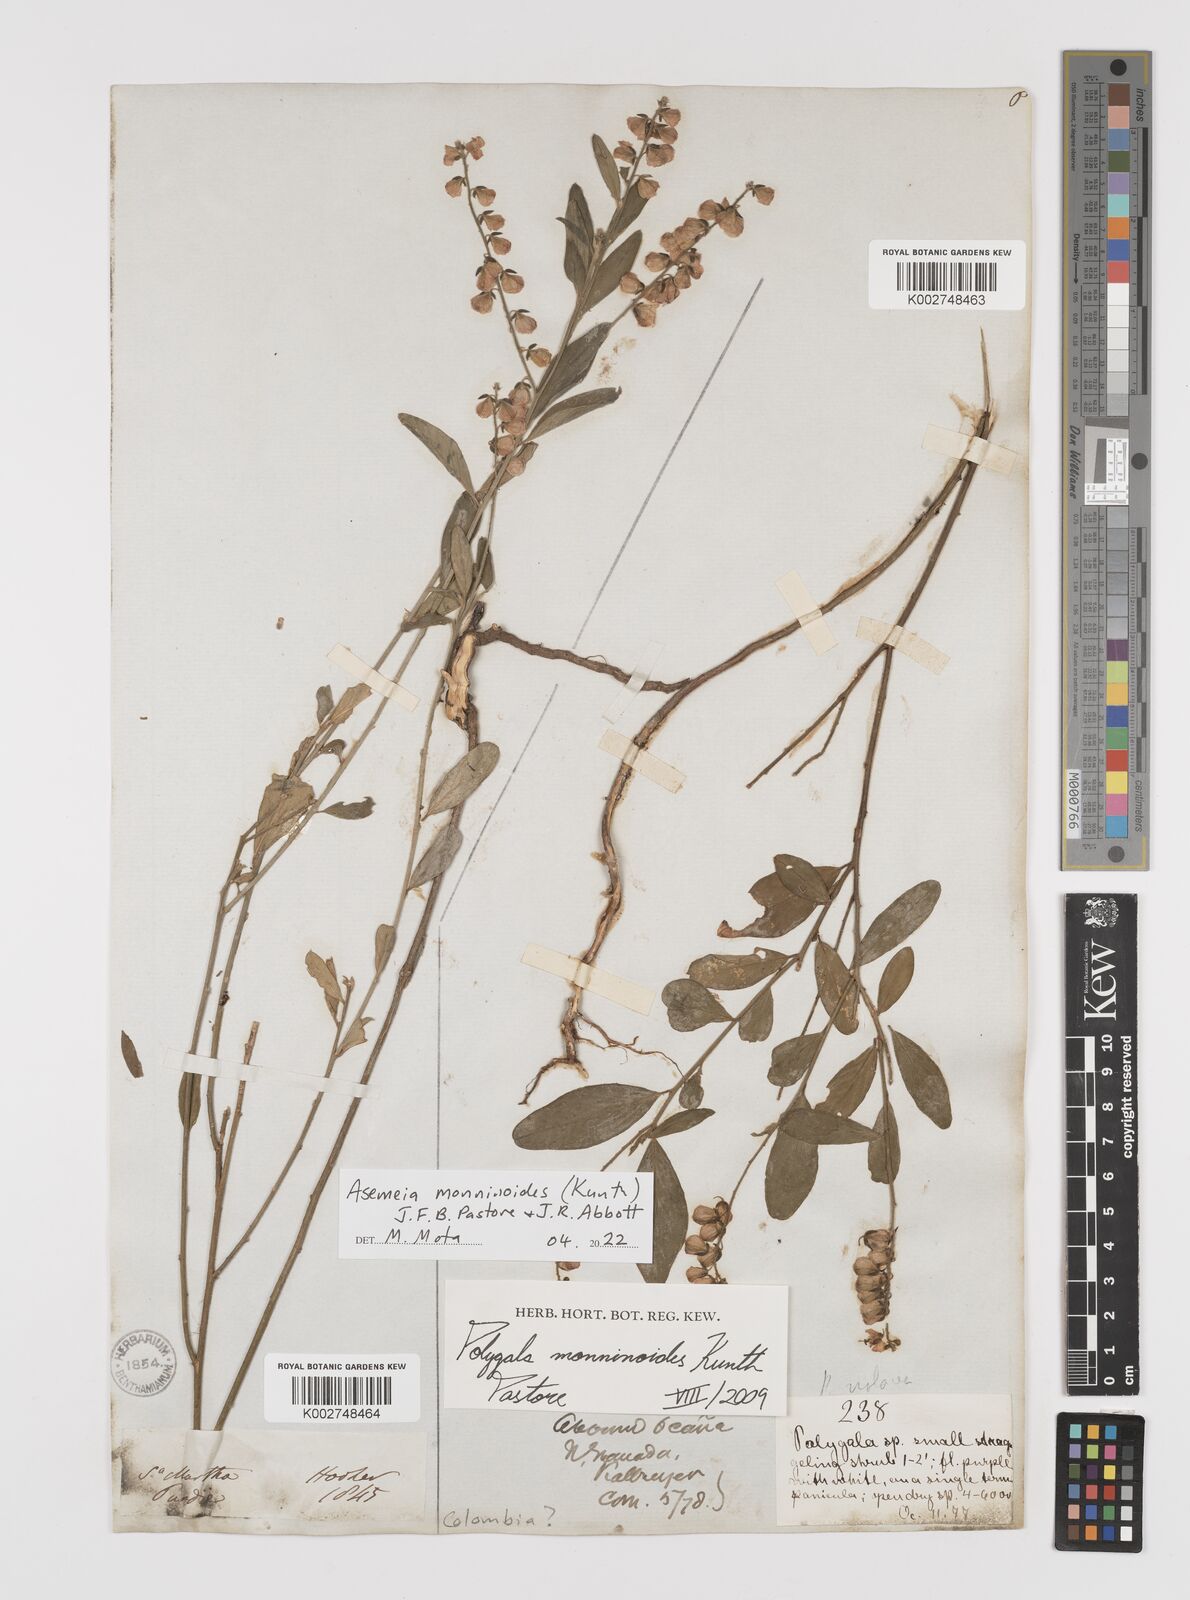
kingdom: Plantae
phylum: Tracheophyta
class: Magnoliopsida
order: Fabales
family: Polygalaceae
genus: Asemeia
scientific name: Asemeia monninoides
